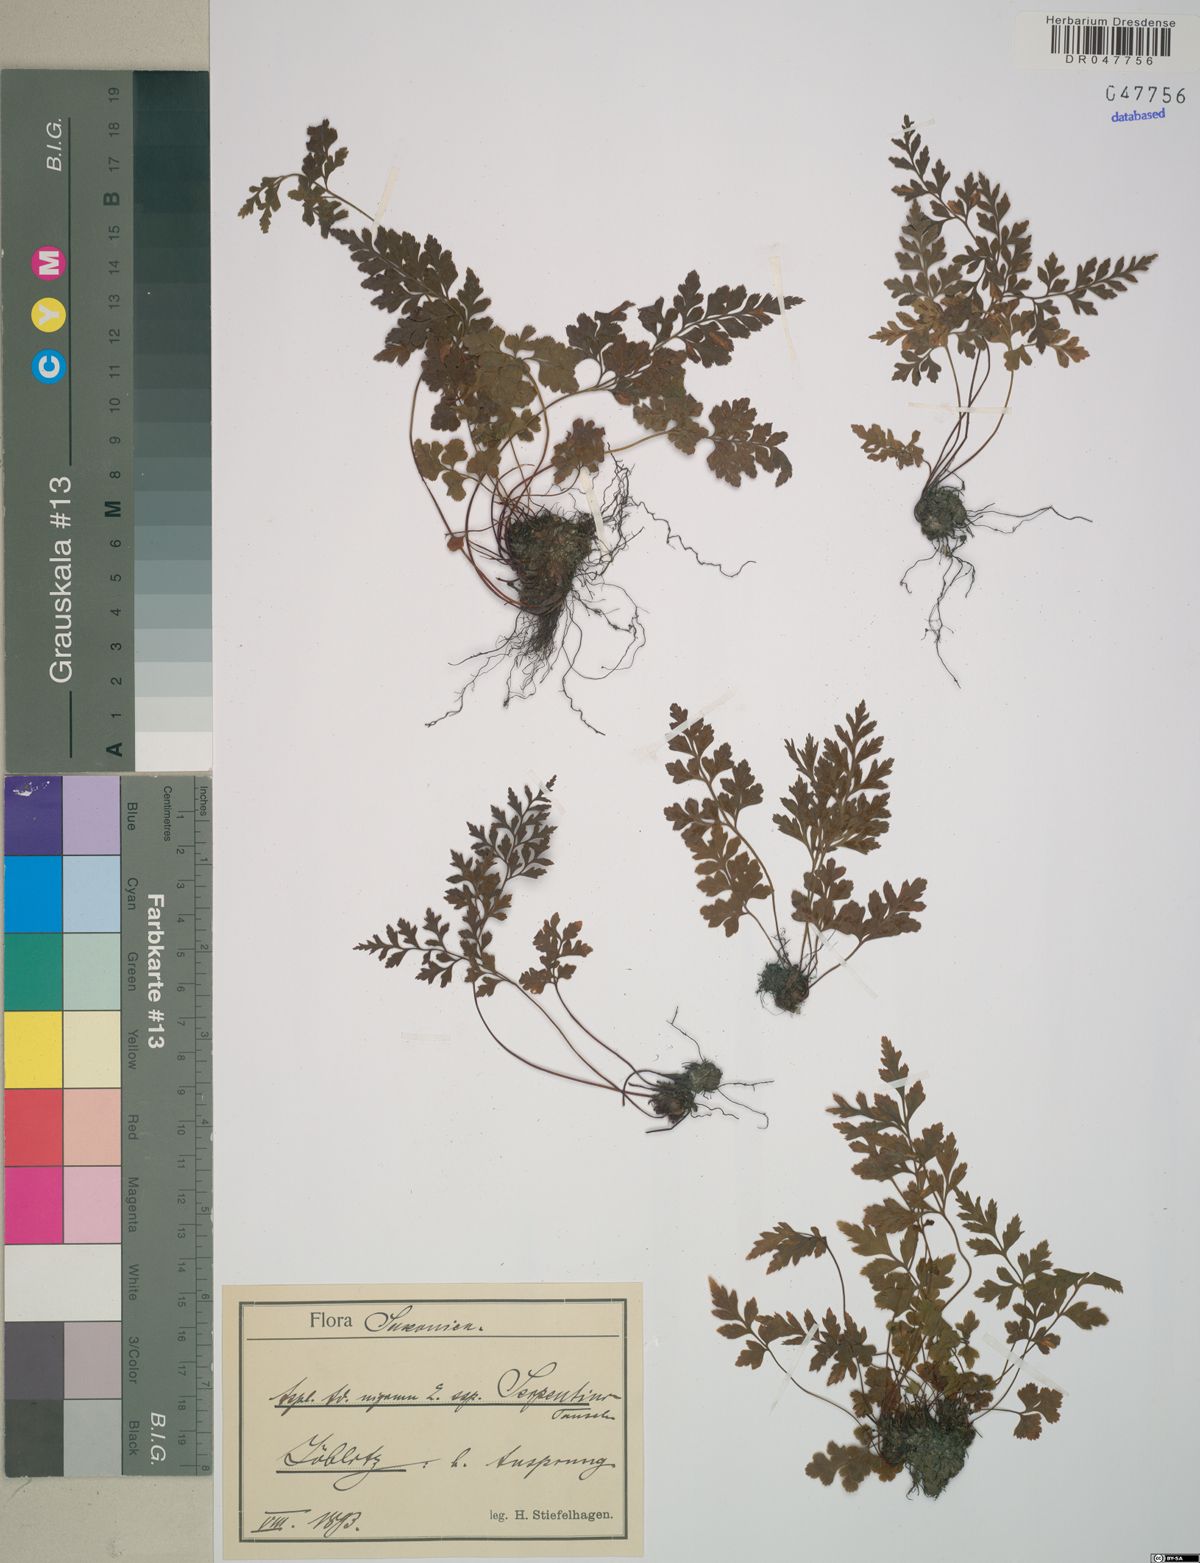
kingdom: Plantae
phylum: Tracheophyta
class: Polypodiopsida
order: Polypodiales
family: Aspleniaceae
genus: Asplenium
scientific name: Asplenium cuneifolium
